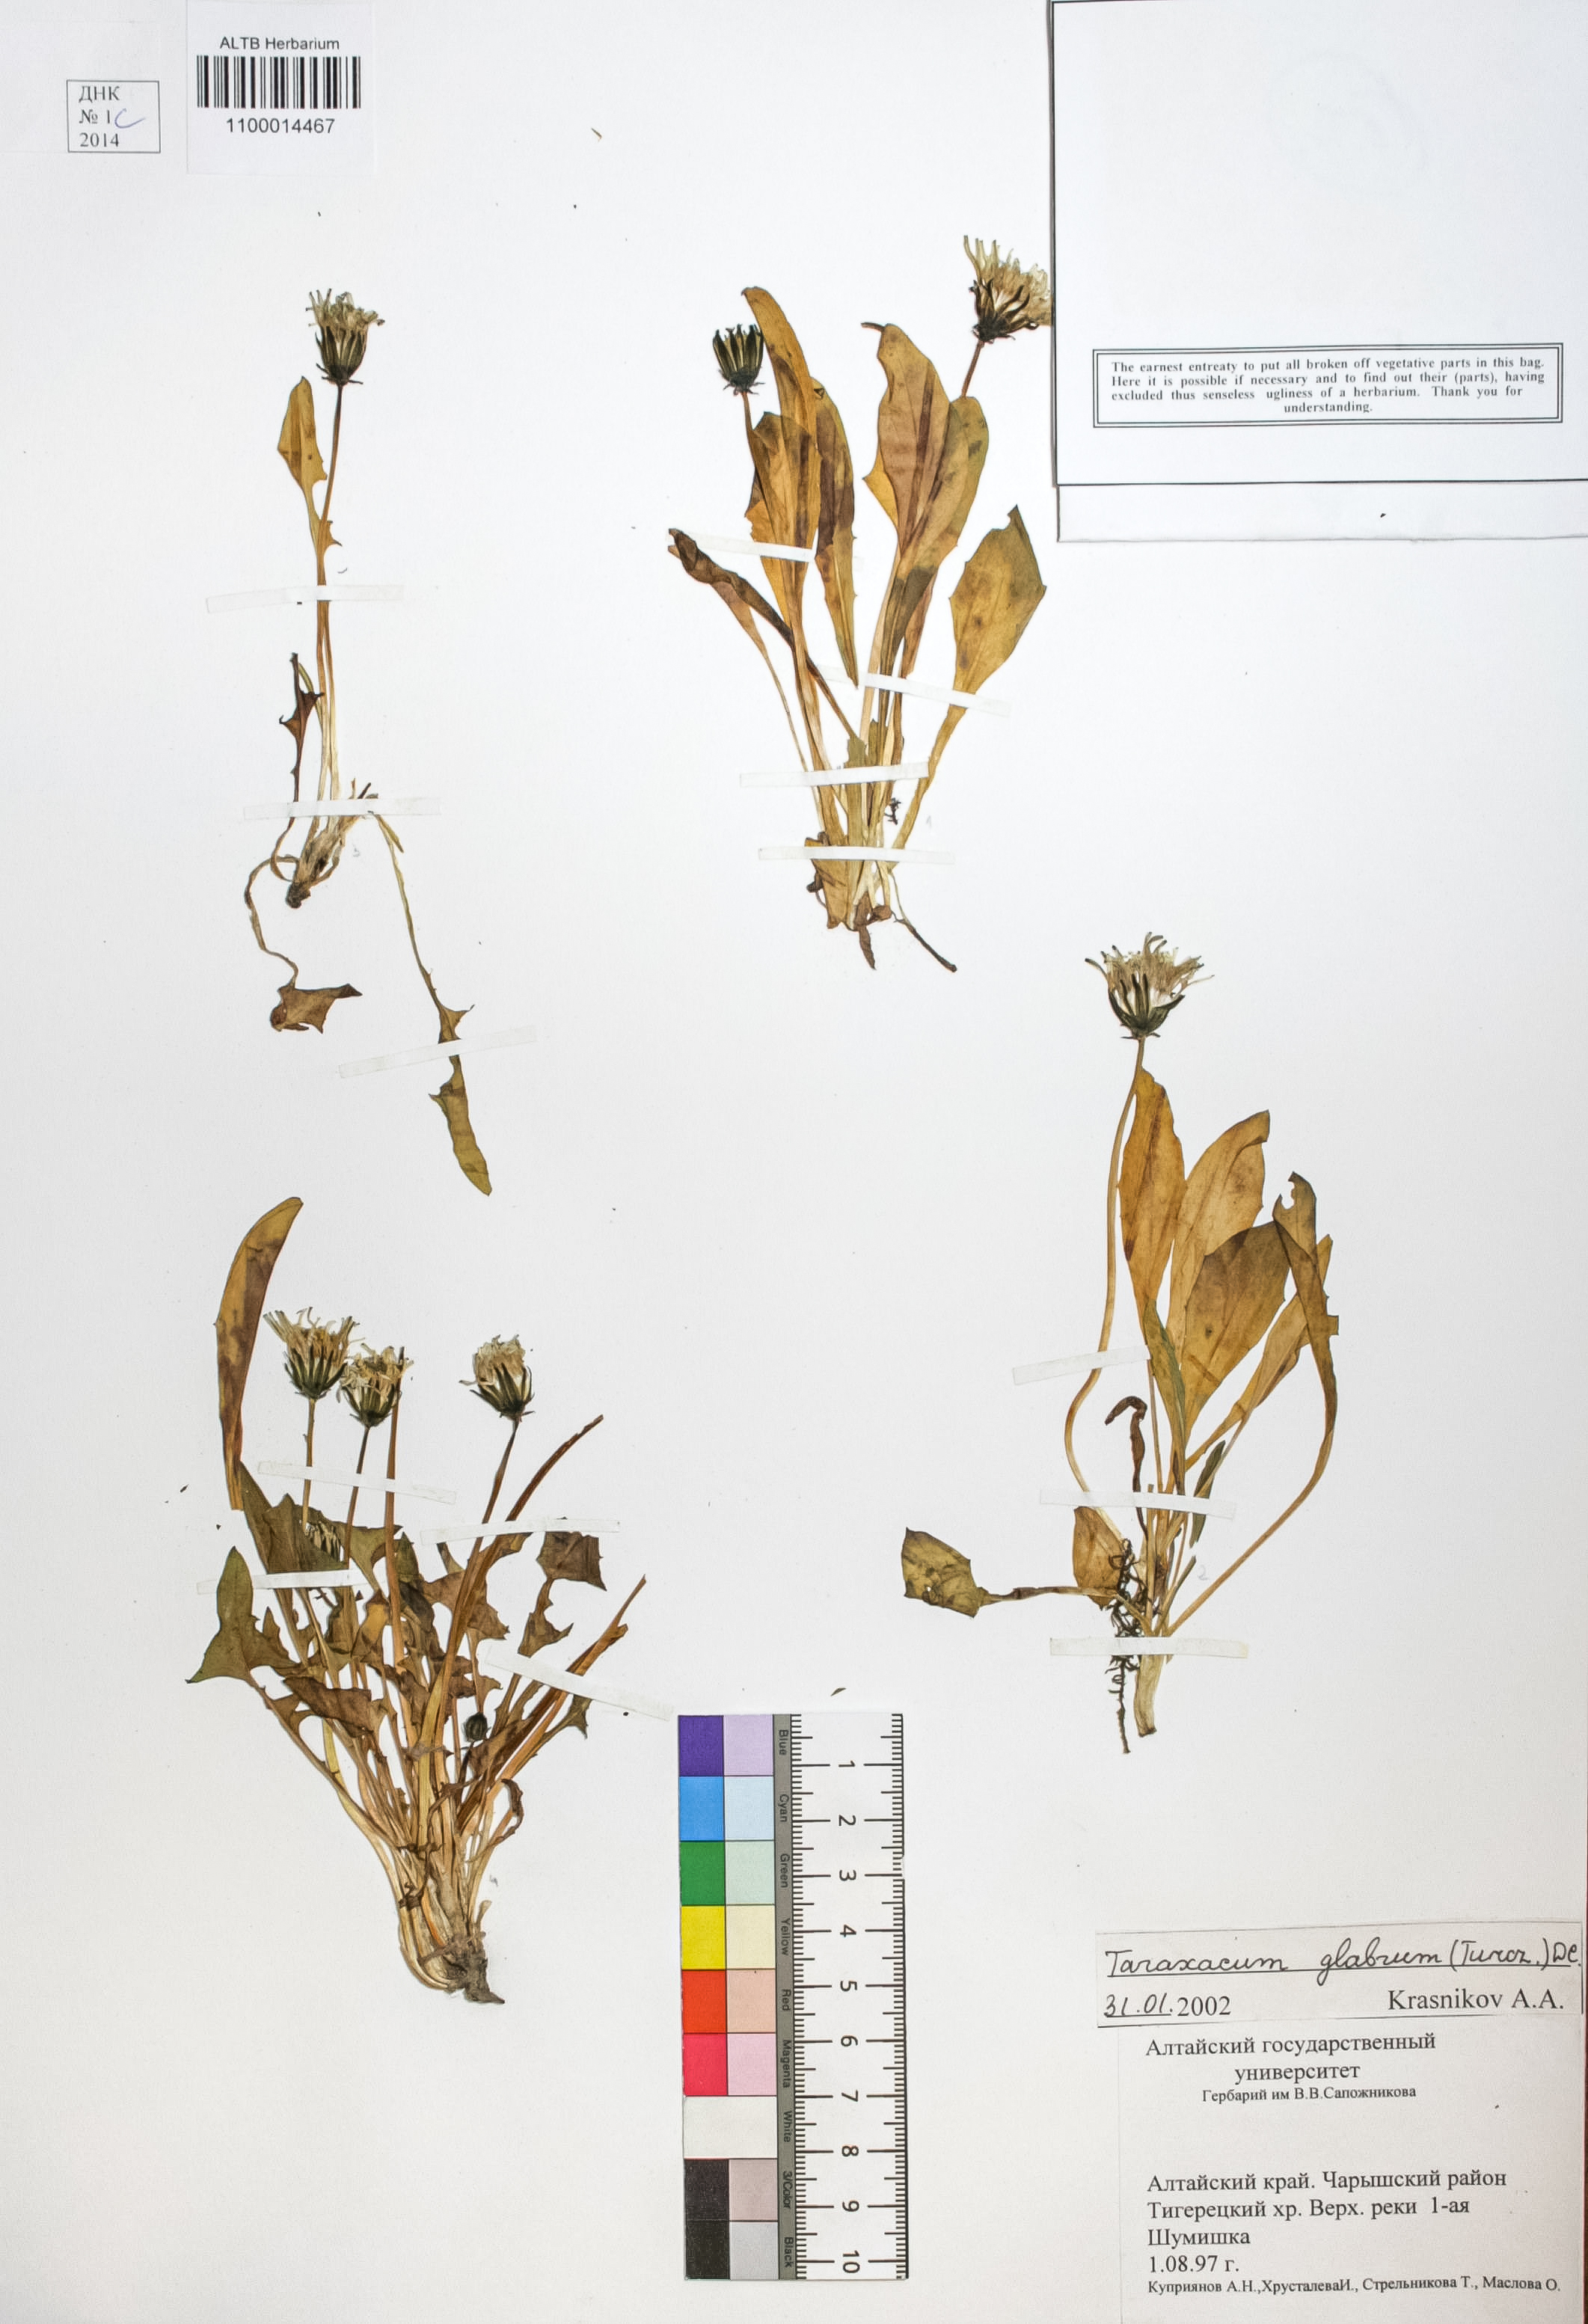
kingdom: Plantae
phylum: Tracheophyta
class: Magnoliopsida
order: Asterales
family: Asteraceae
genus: Taraxacum
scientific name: Taraxacum glabrum
